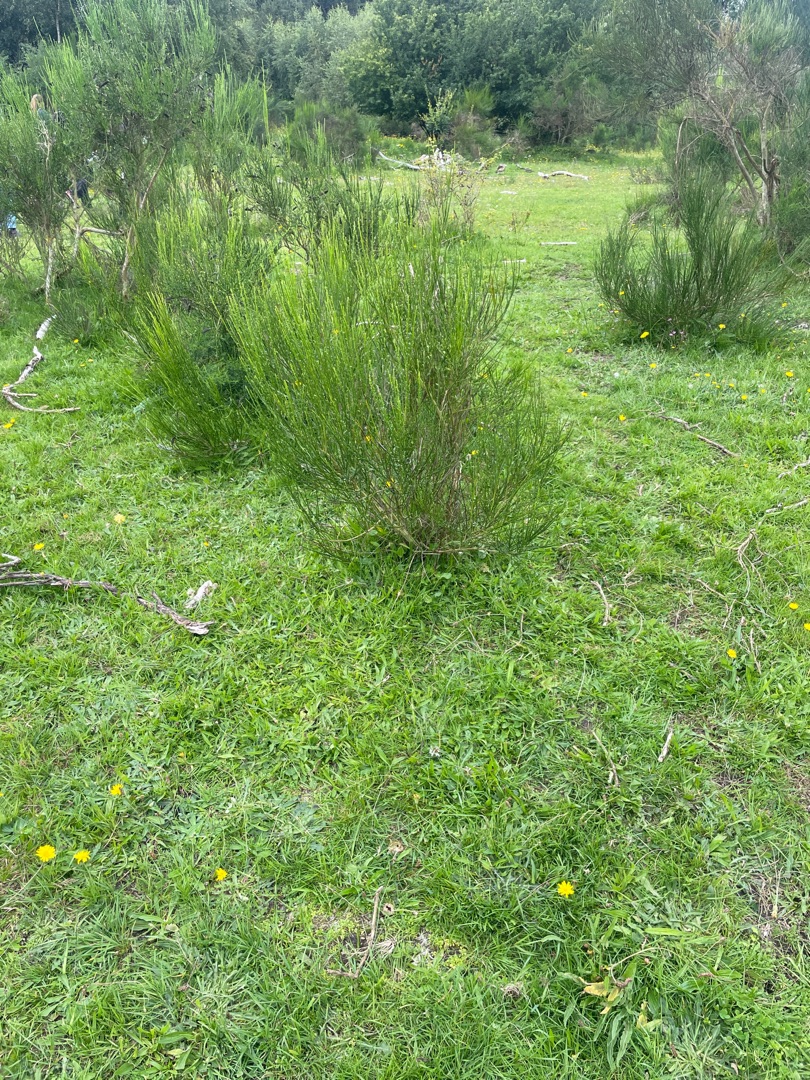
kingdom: Plantae
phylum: Tracheophyta
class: Magnoliopsida
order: Fabales
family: Fabaceae
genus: Cytisus
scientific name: Cytisus scoparius
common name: Almindelig gyvel
